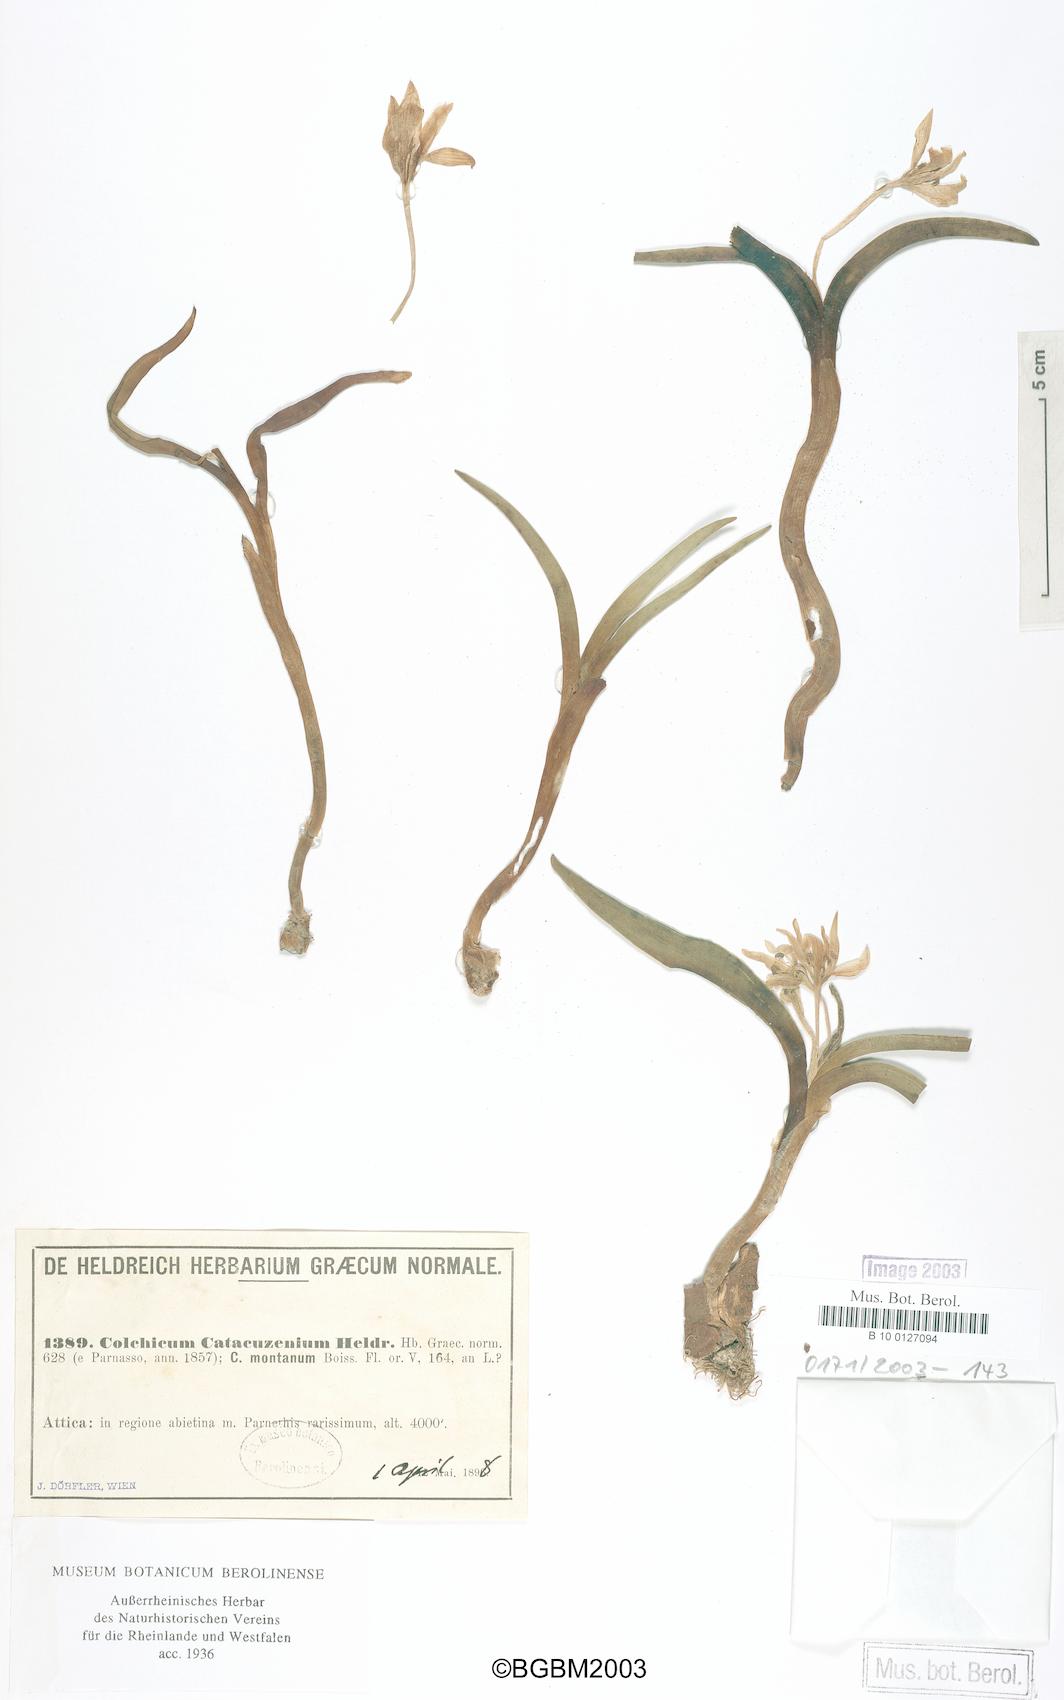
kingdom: Plantae
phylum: Tracheophyta
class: Liliopsida
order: Liliales
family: Colchicaceae
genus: Colchicum
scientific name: Colchicum catacuzenium
